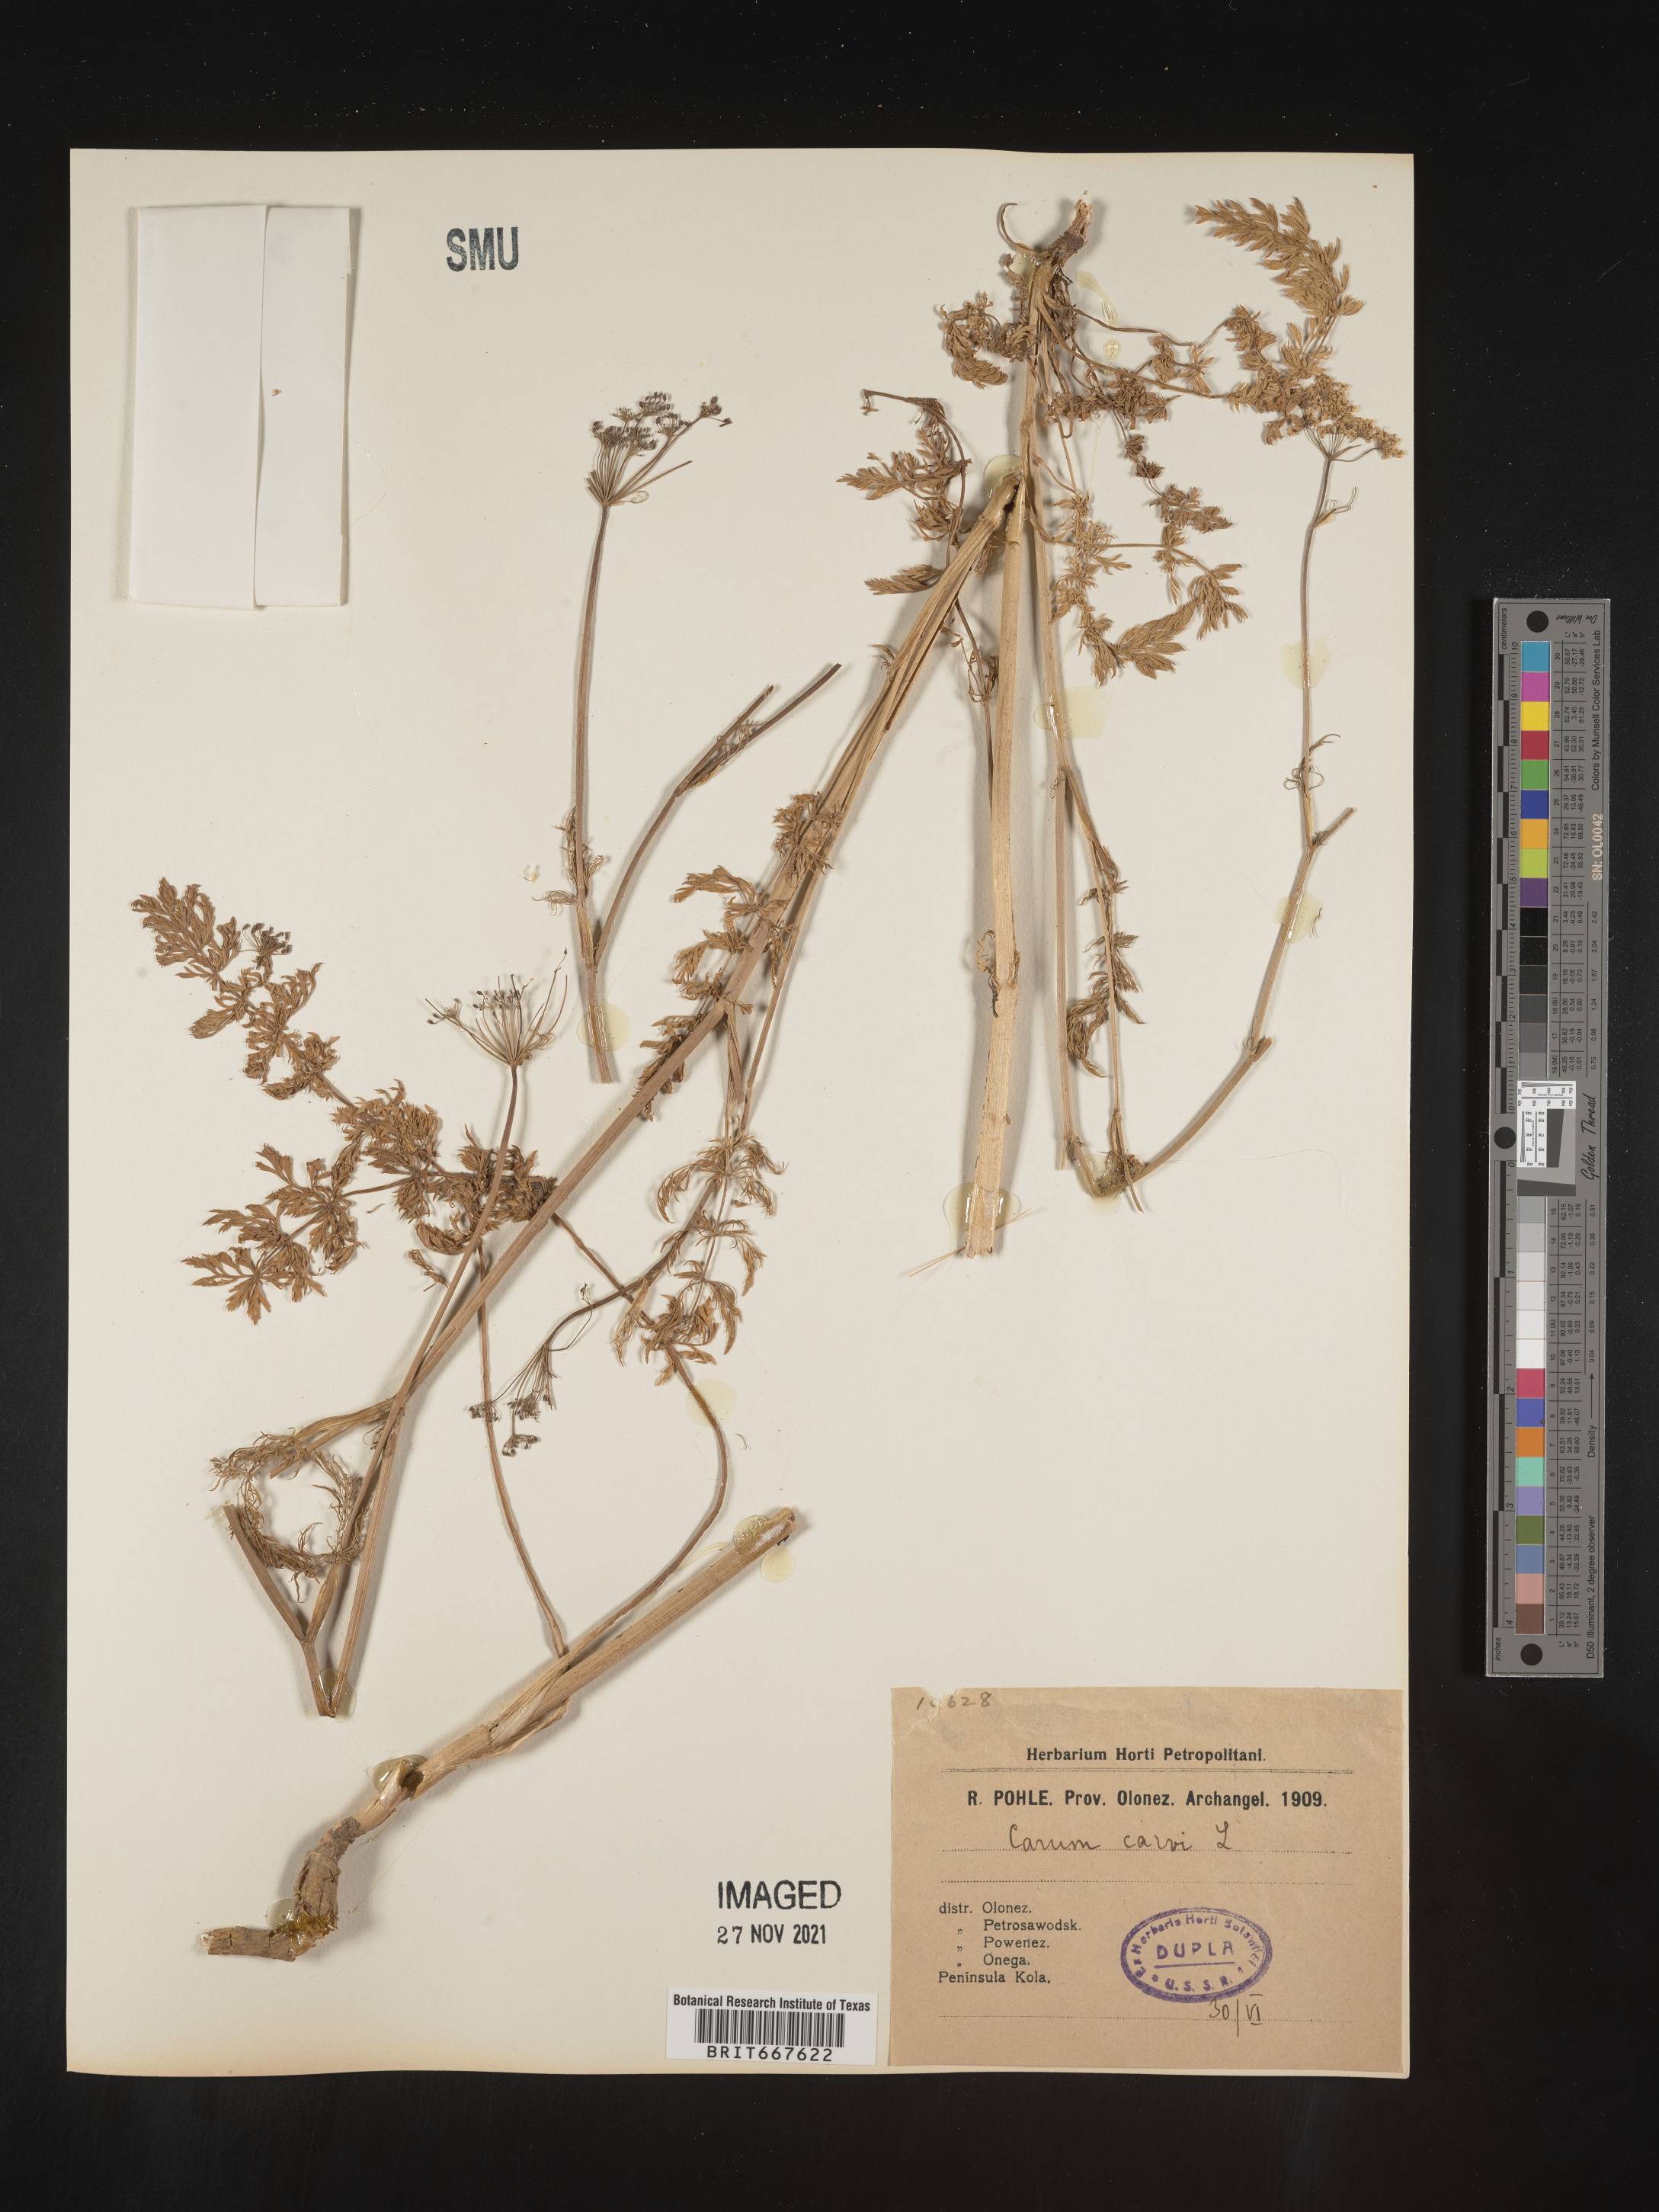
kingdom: Plantae
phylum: Tracheophyta
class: Magnoliopsida
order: Apiales
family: Apiaceae
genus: Carum
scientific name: Carum
